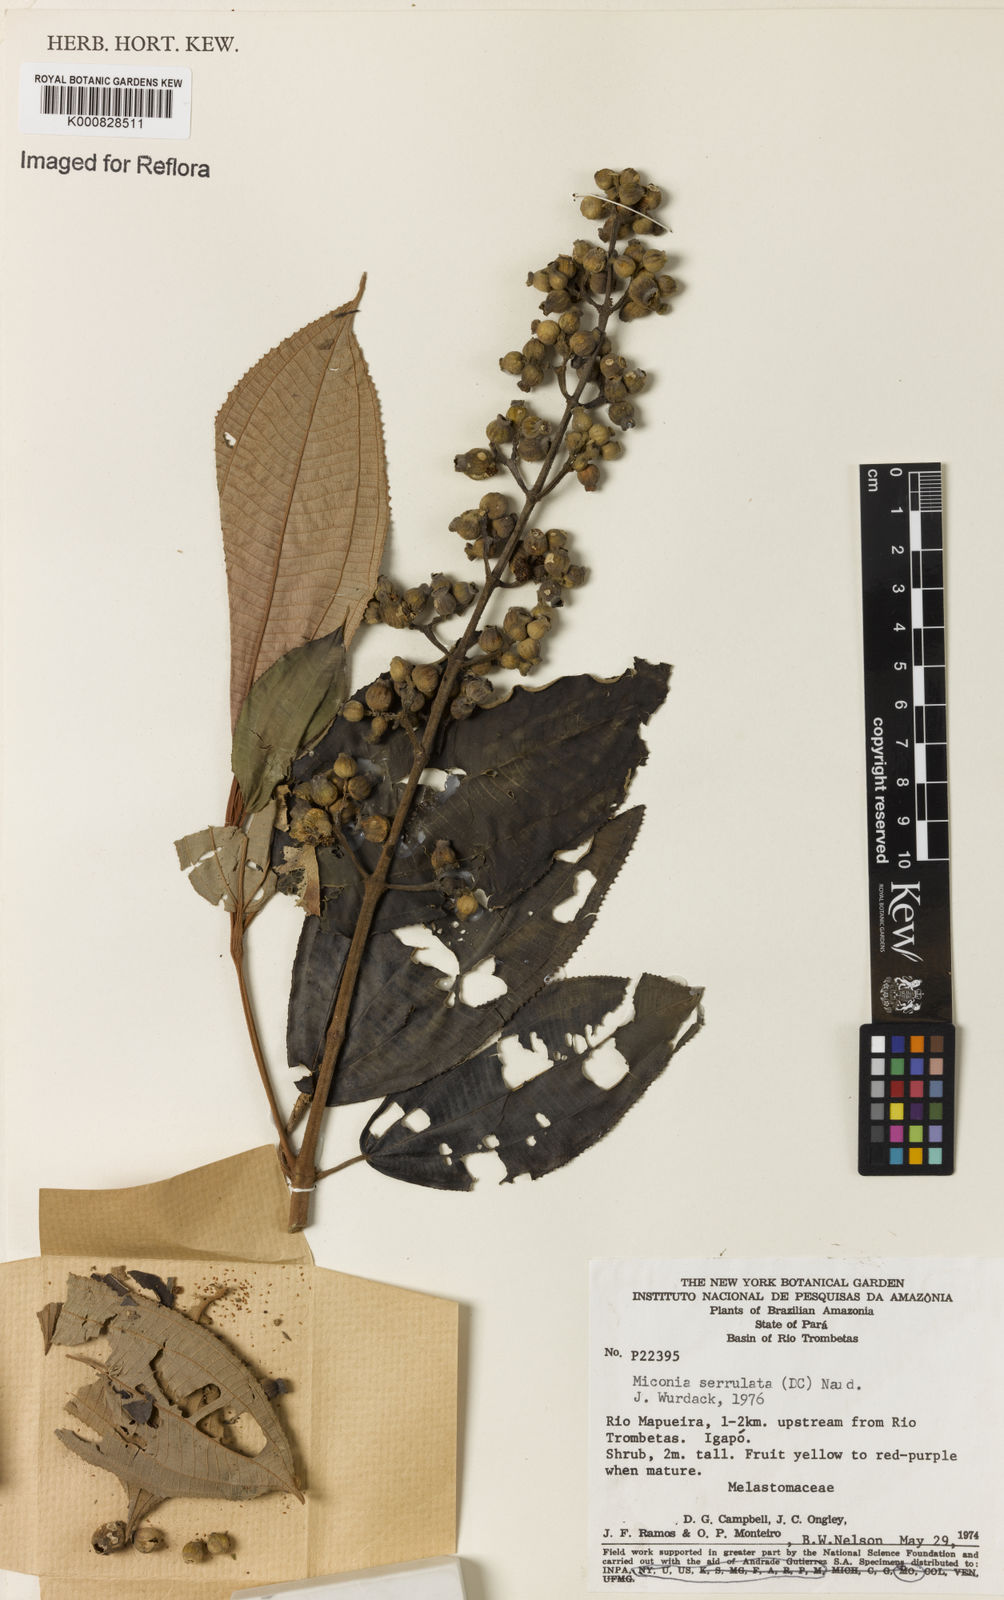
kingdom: Plantae
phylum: Tracheophyta
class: Magnoliopsida
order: Myrtales
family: Melastomataceae
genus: Miconia
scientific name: Miconia serrulata
